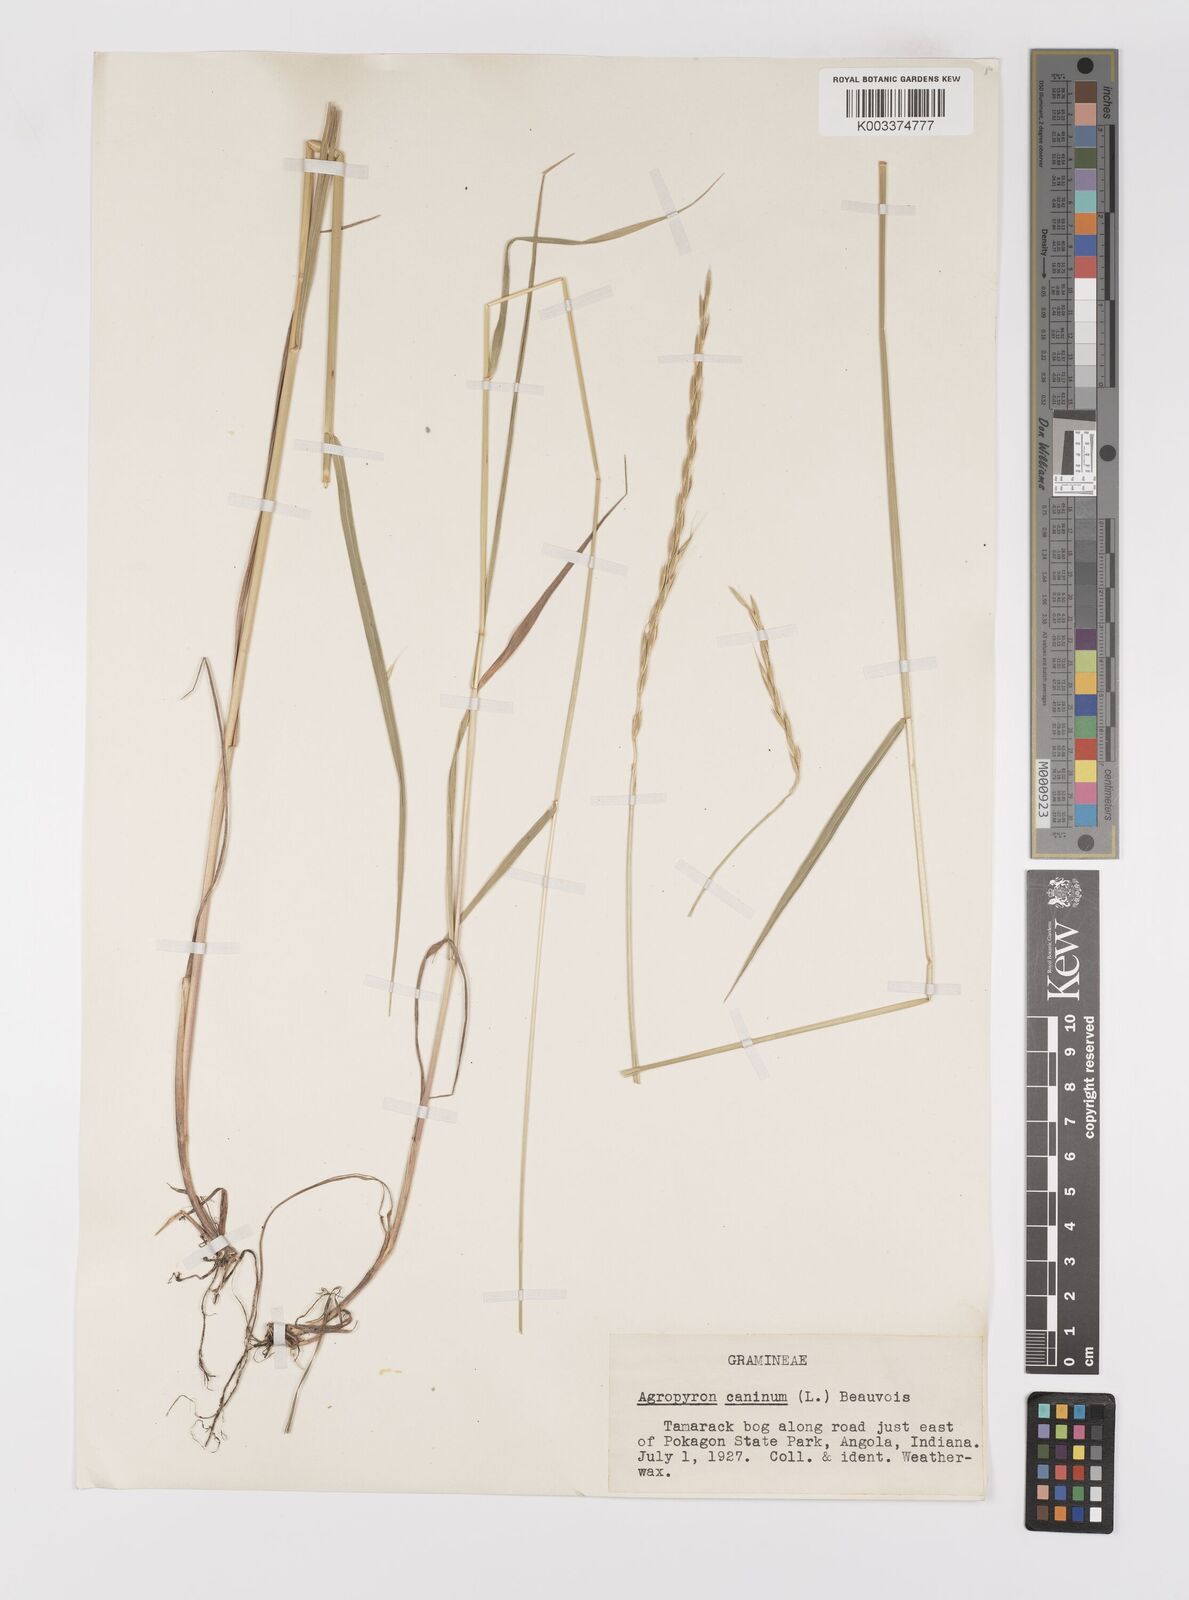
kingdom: Plantae
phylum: Tracheophyta
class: Liliopsida
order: Poales
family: Poaceae
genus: Elymus
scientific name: Elymus violaceus
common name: Arctic wheatgrass
